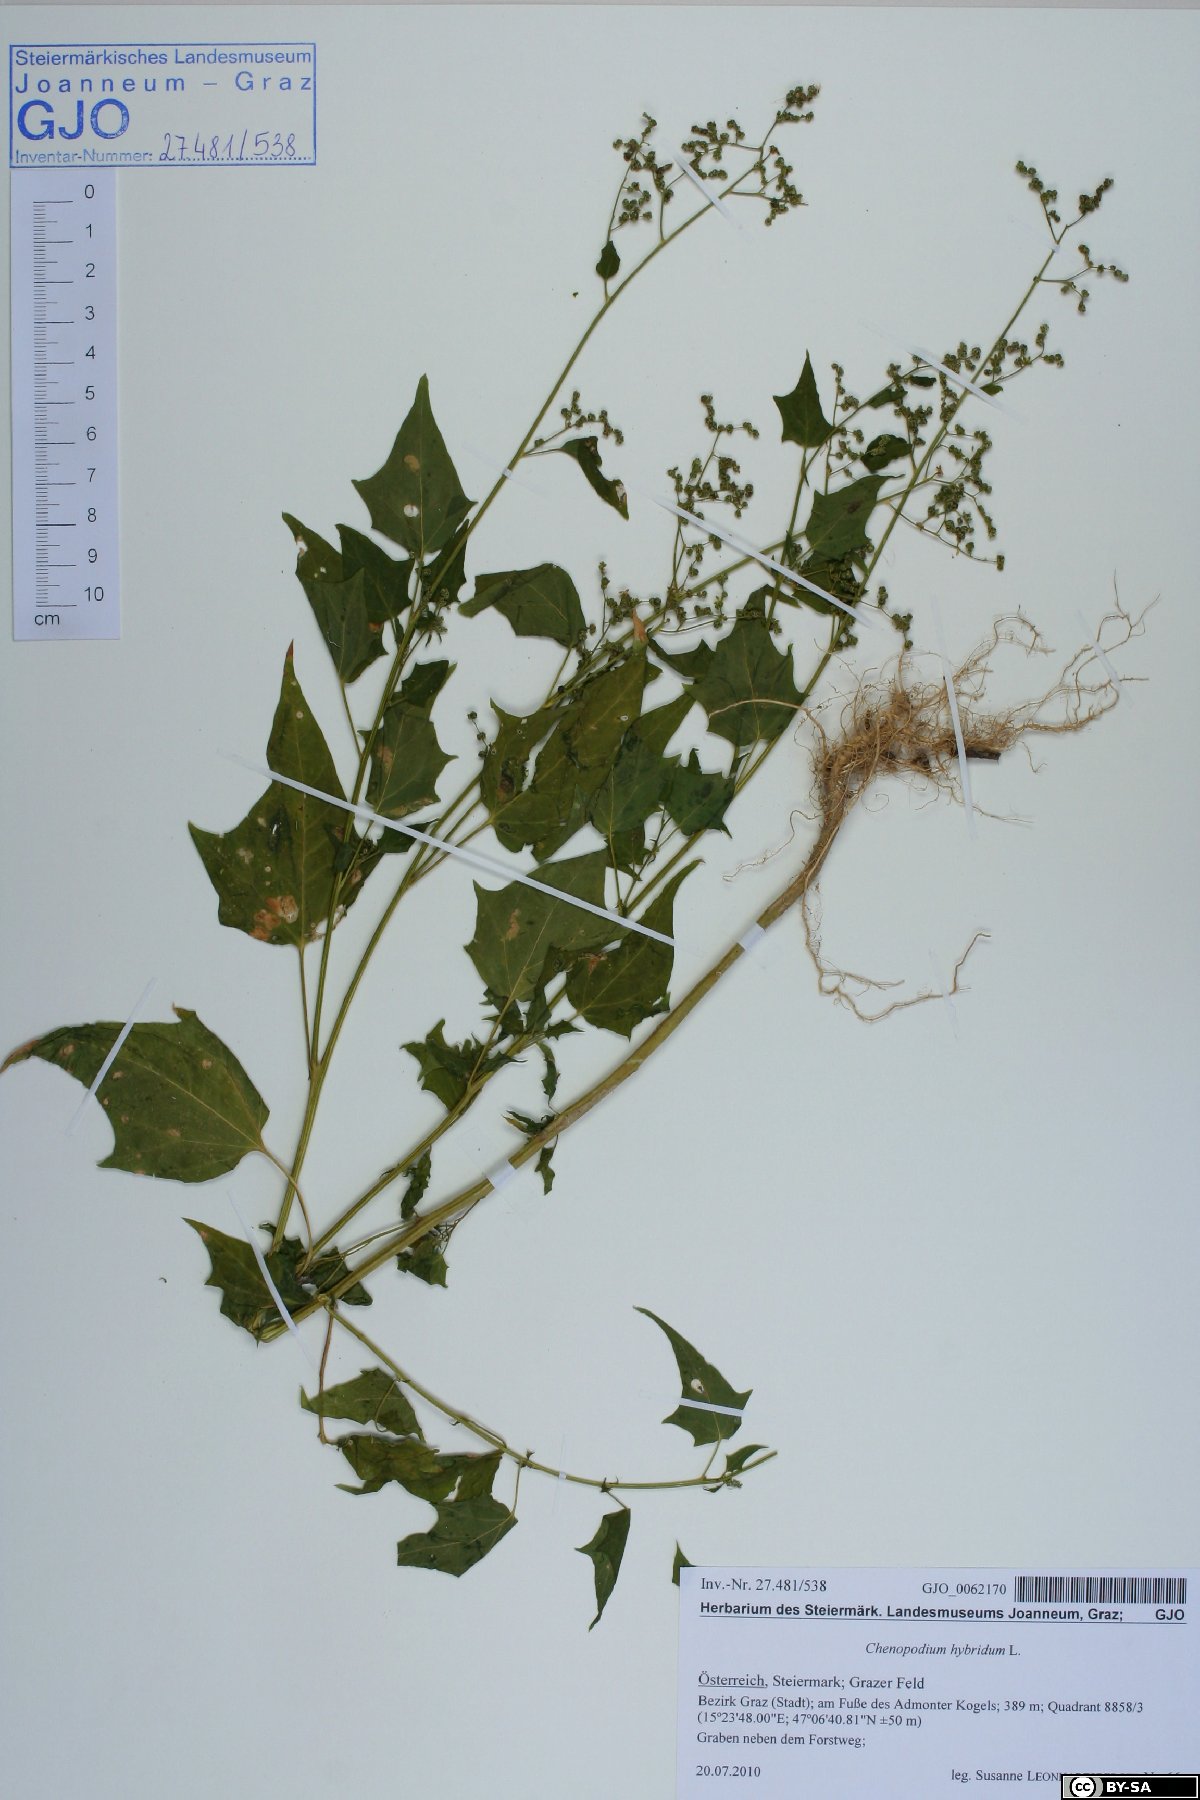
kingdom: Plantae
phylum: Tracheophyta
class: Magnoliopsida
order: Caryophyllales
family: Amaranthaceae
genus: Chenopodiastrum
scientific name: Chenopodiastrum hybridum
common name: Mapleleaf goosefoot
